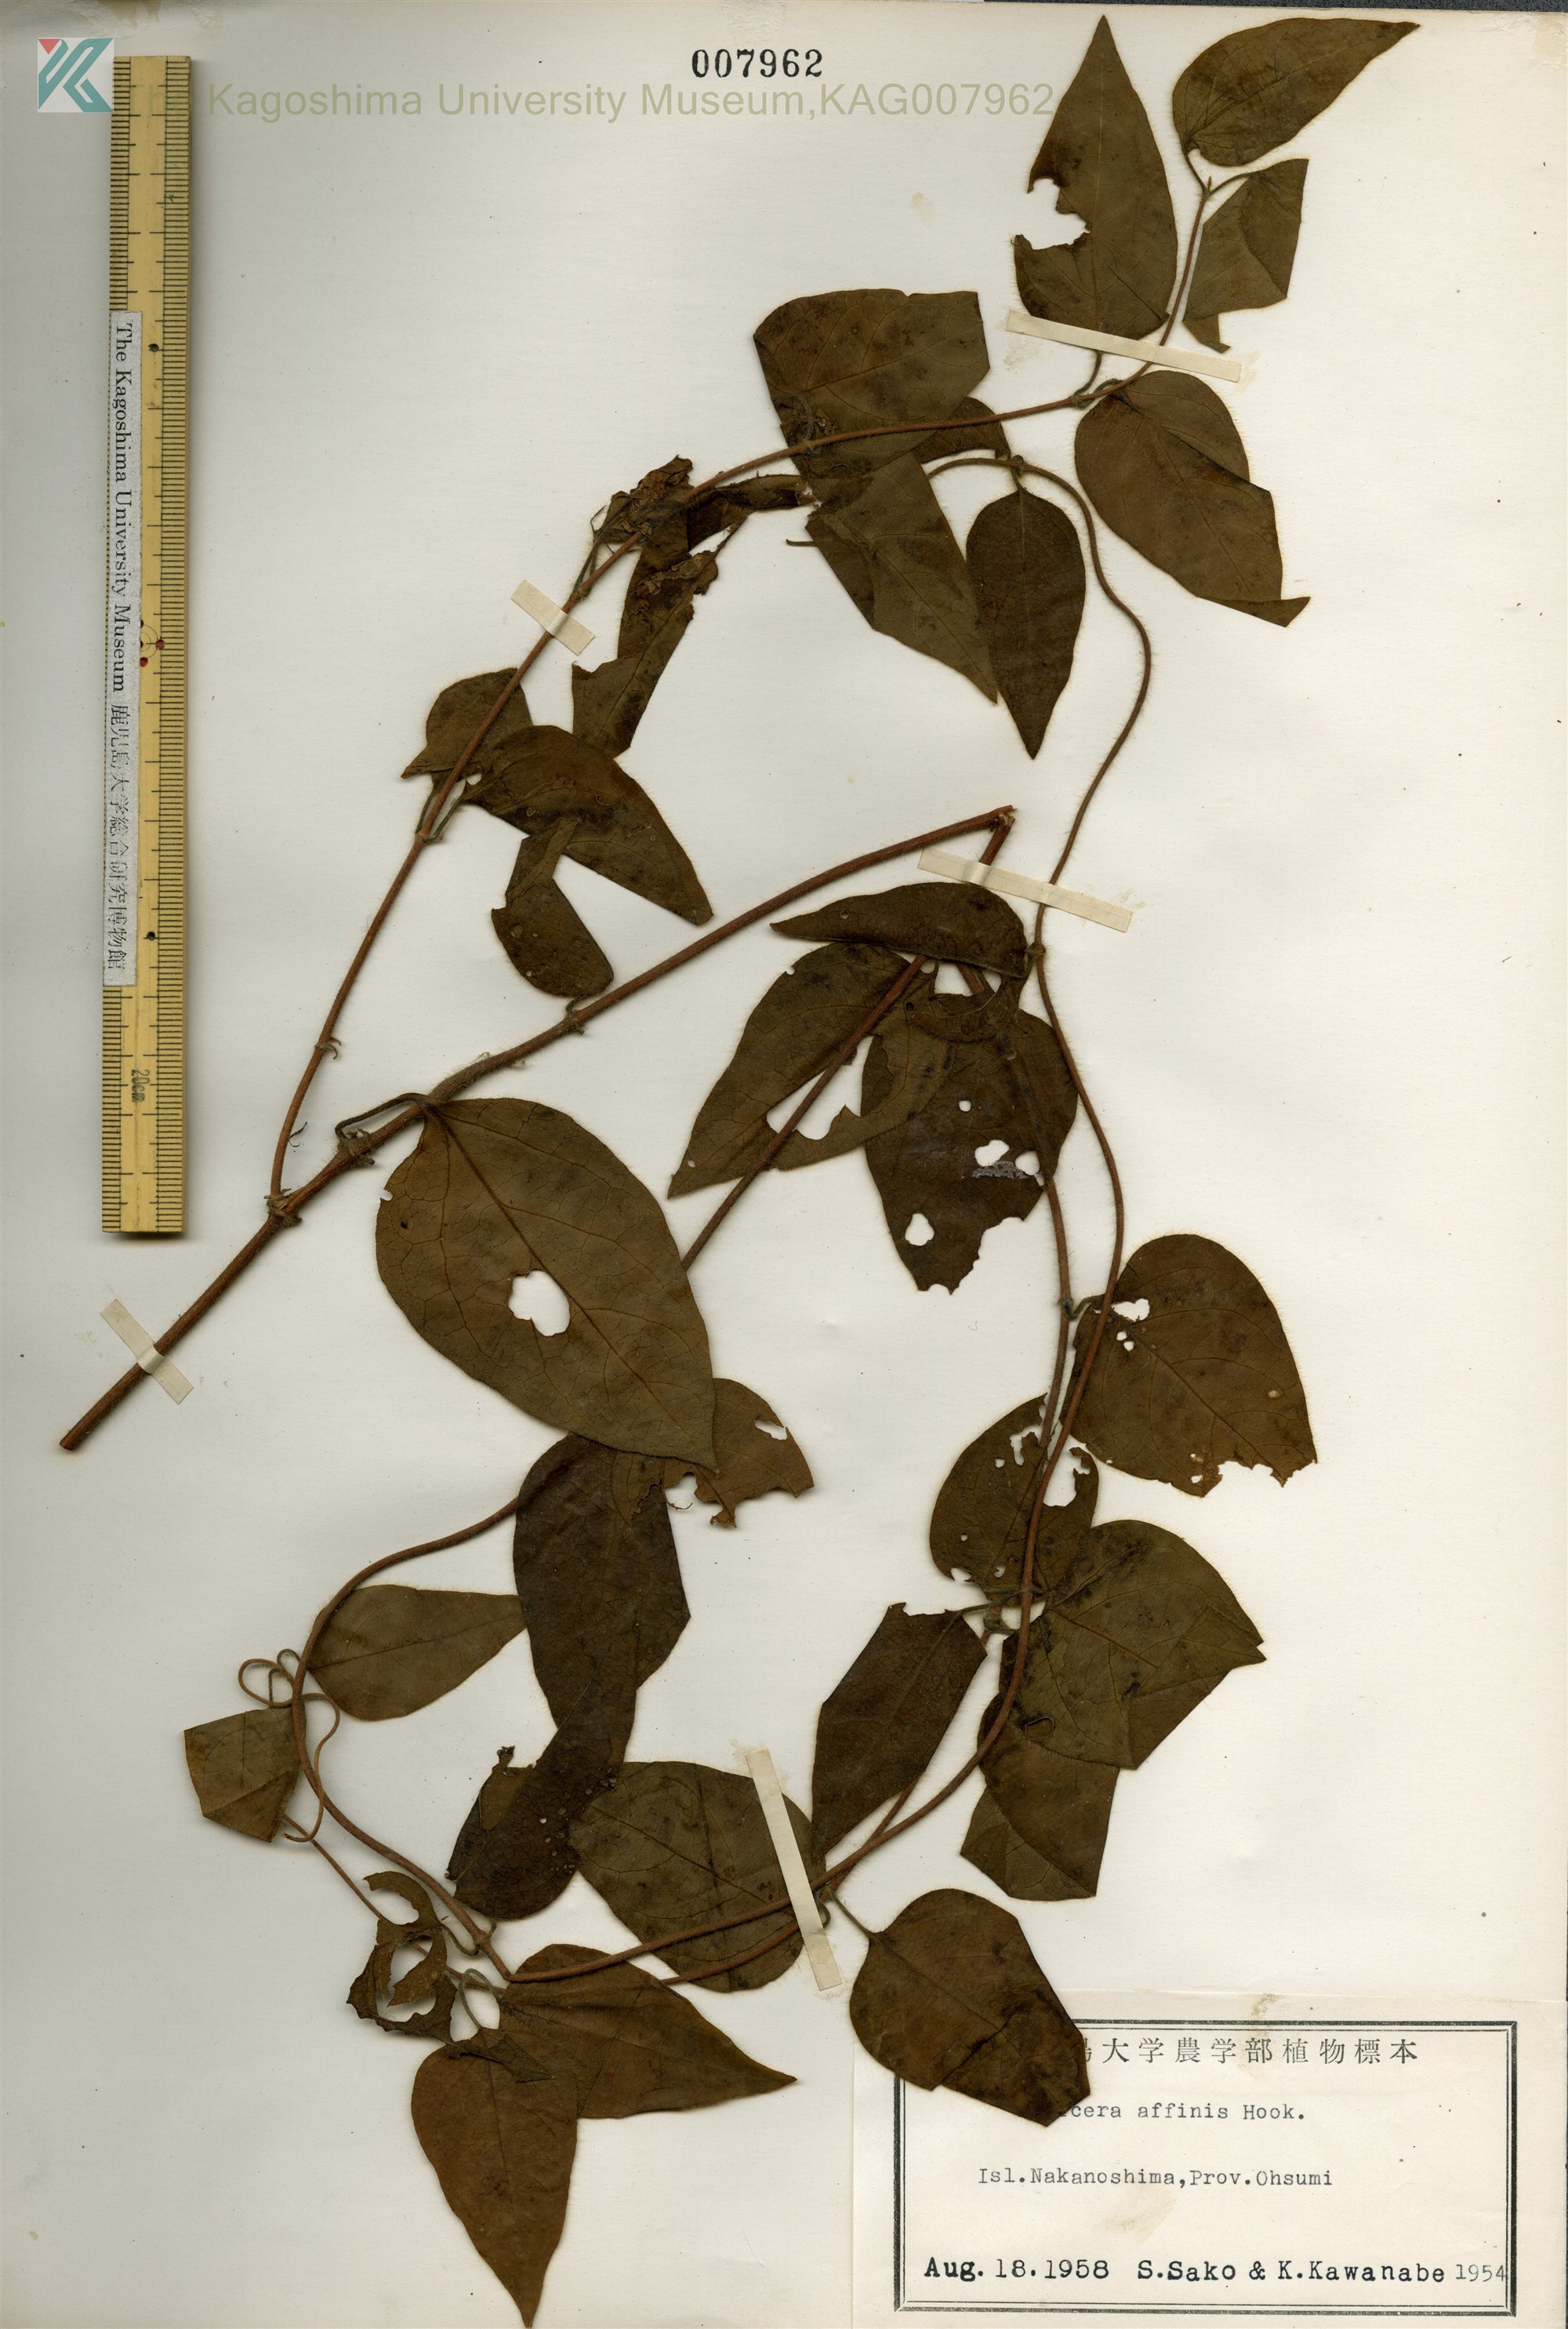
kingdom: Plantae
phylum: Tracheophyta
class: Magnoliopsida
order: Dipsacales
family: Caprifoliaceae
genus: Lonicera
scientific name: Lonicera affinis
